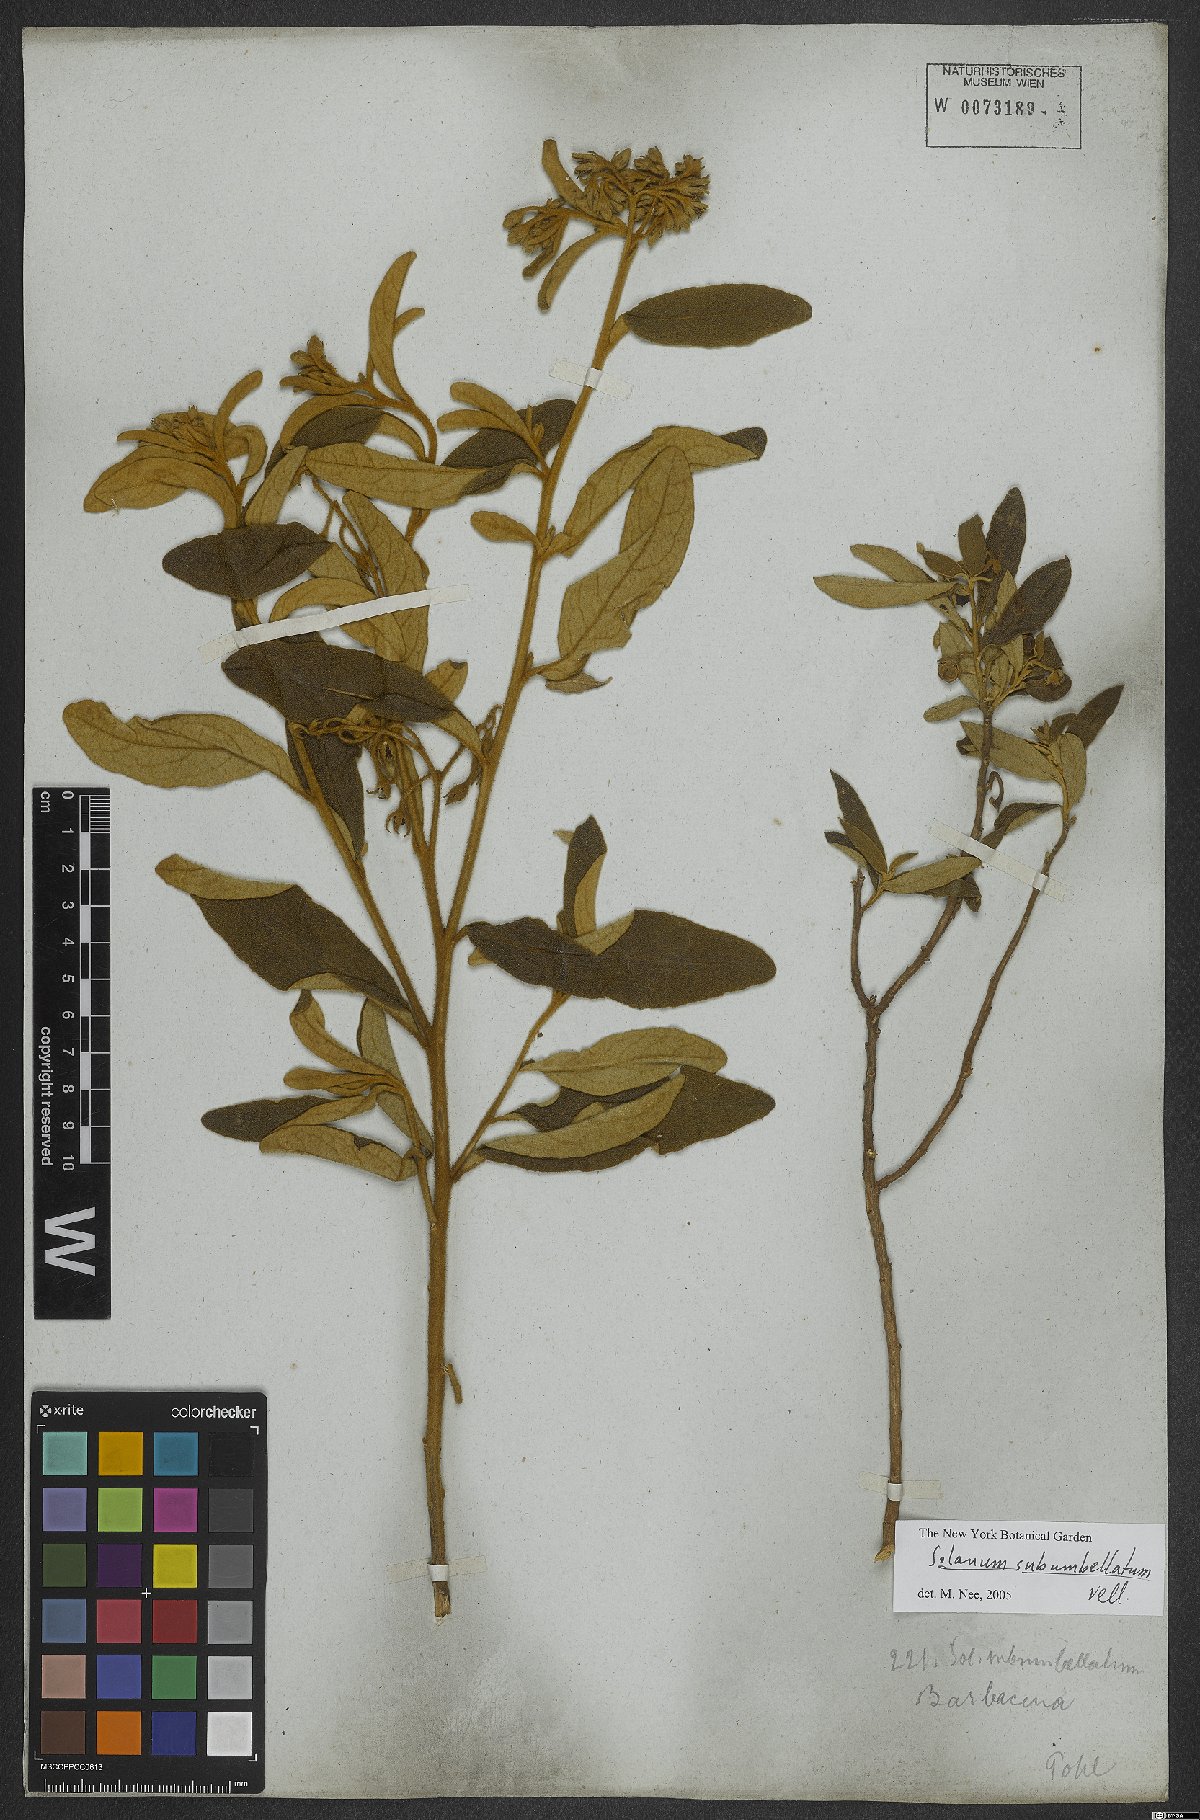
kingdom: Plantae
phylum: Tracheophyta
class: Magnoliopsida
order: Solanales
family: Solanaceae
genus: Solanum
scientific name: Solanum subumbellatum
